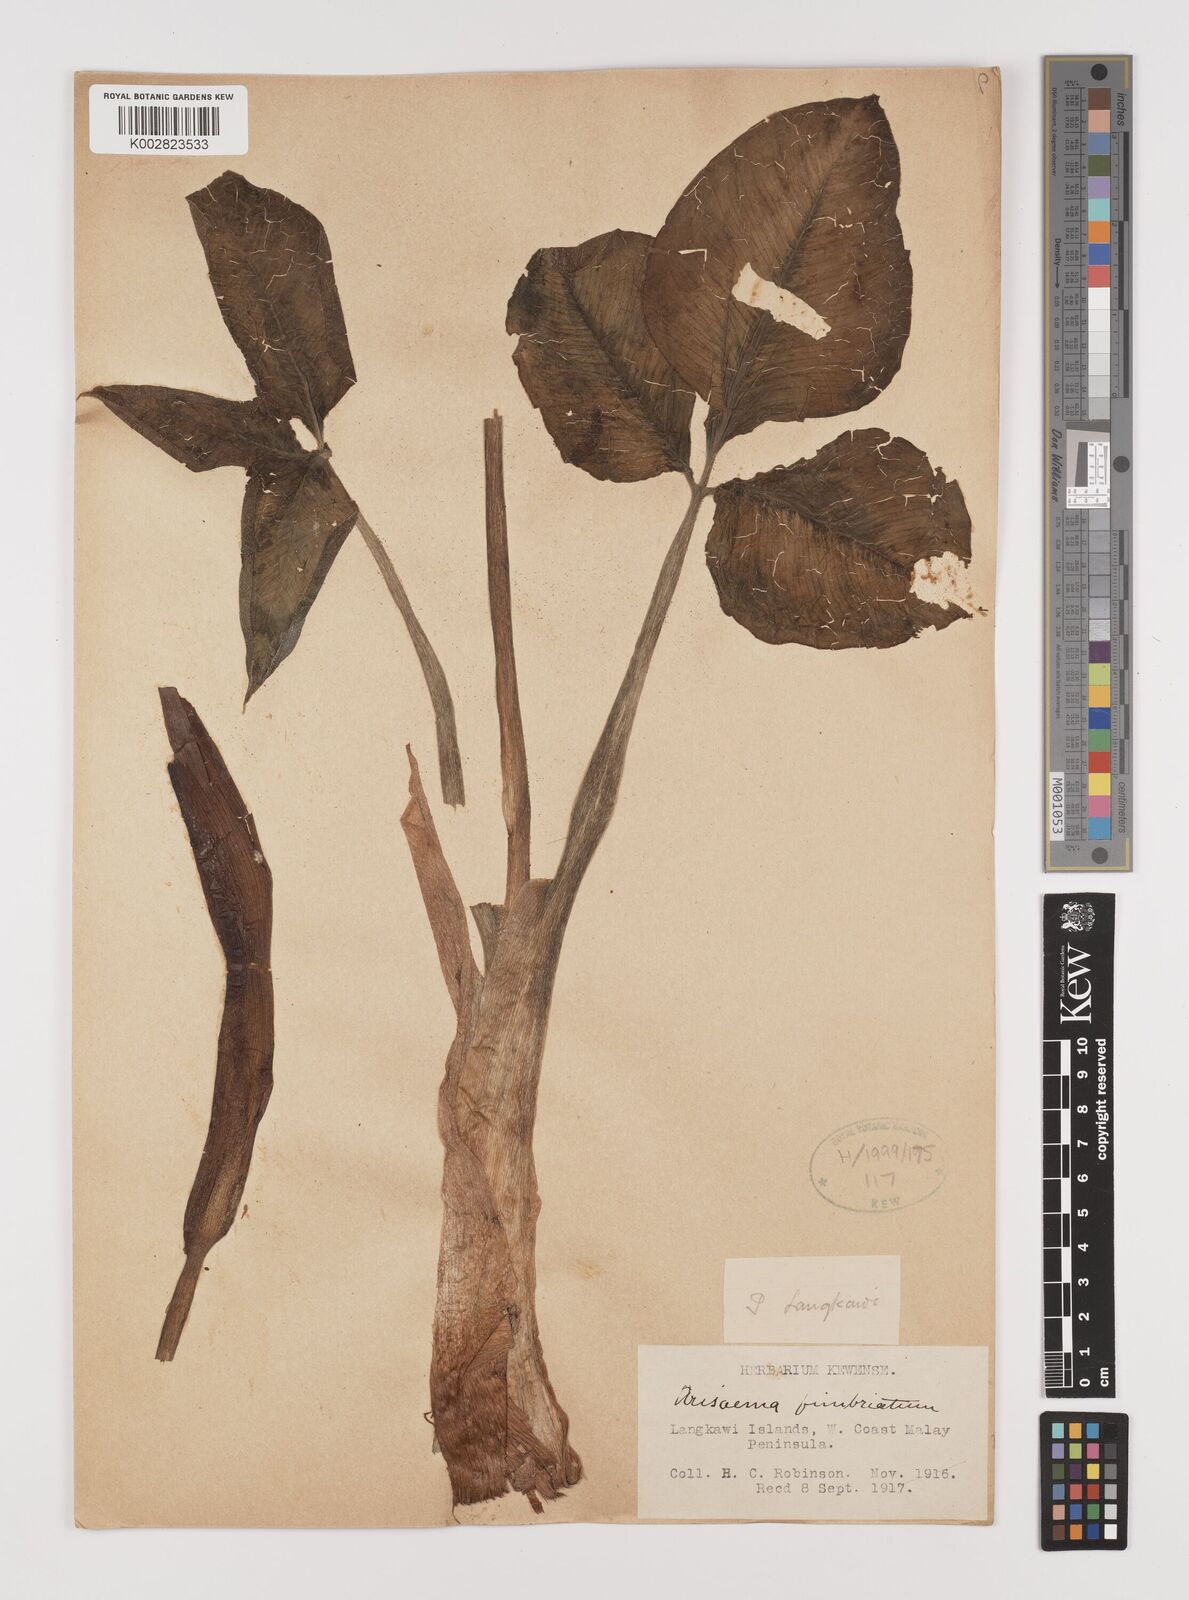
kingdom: Plantae
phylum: Tracheophyta
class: Liliopsida
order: Alismatales
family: Araceae
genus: Arisaema
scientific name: Arisaema fimbriatum
